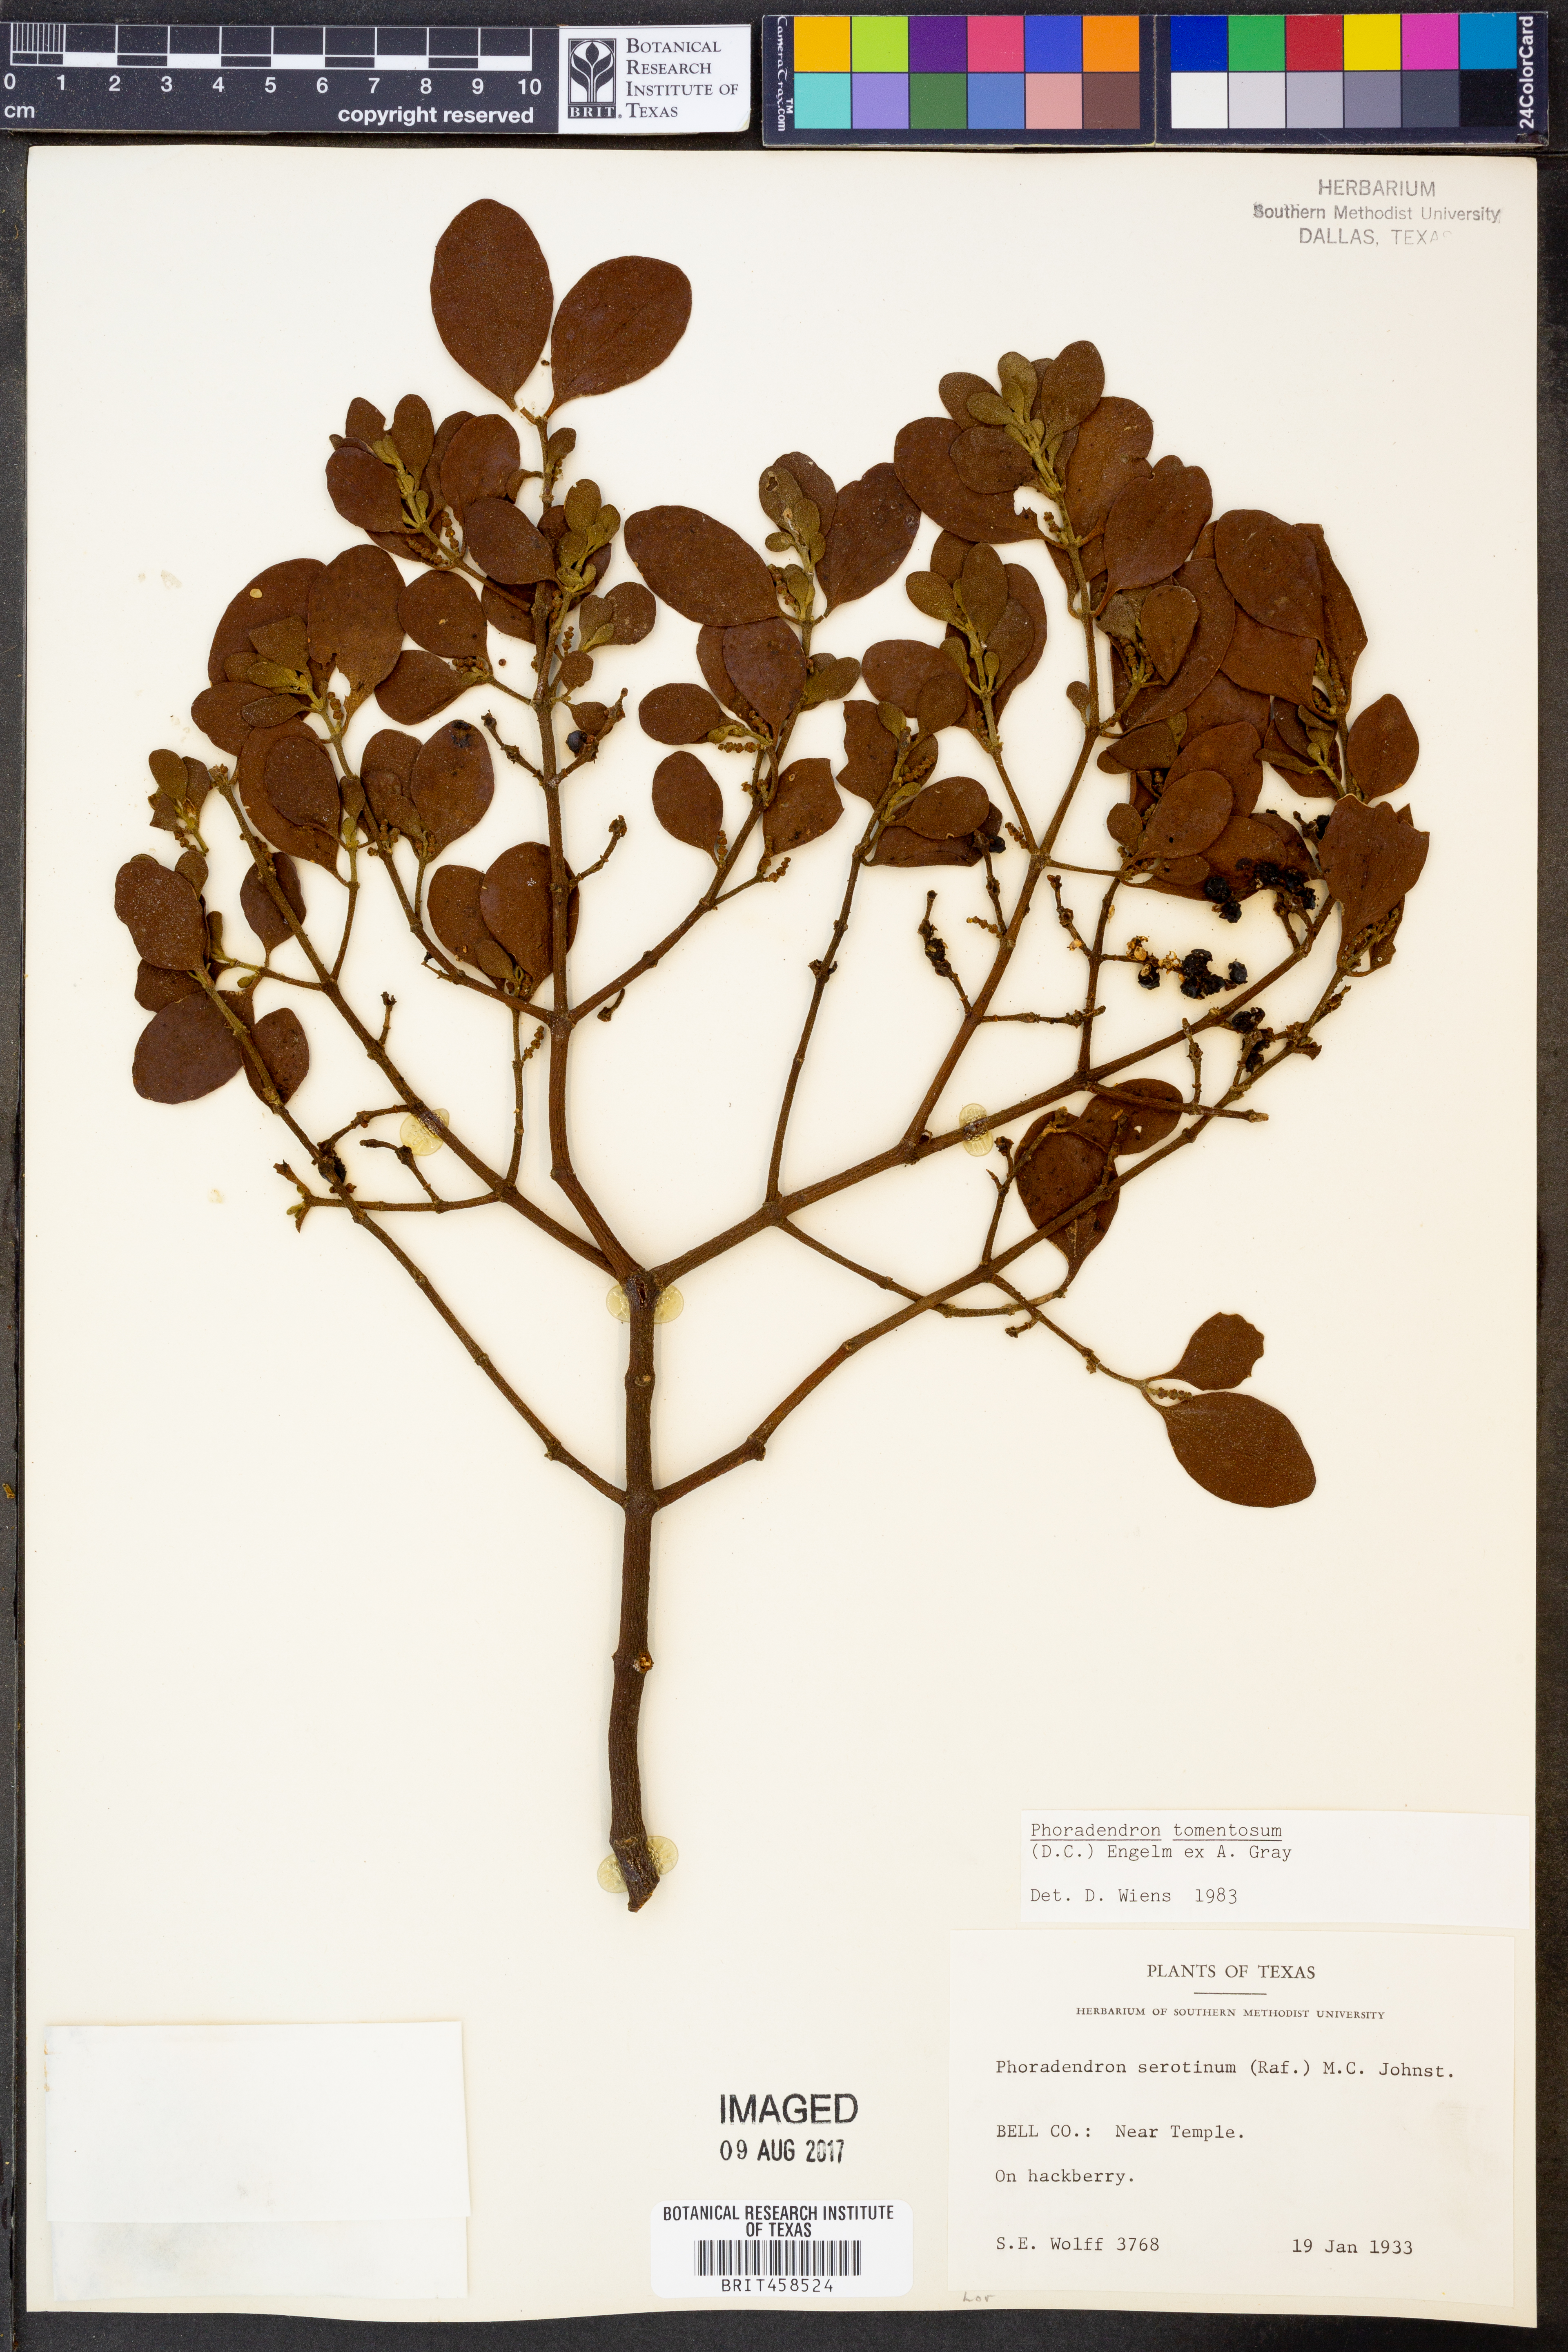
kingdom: Plantae
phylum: Tracheophyta
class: Magnoliopsida
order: Santalales
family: Viscaceae
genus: Phoradendron
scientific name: Phoradendron leucarpum
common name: Pacific mistletoe
